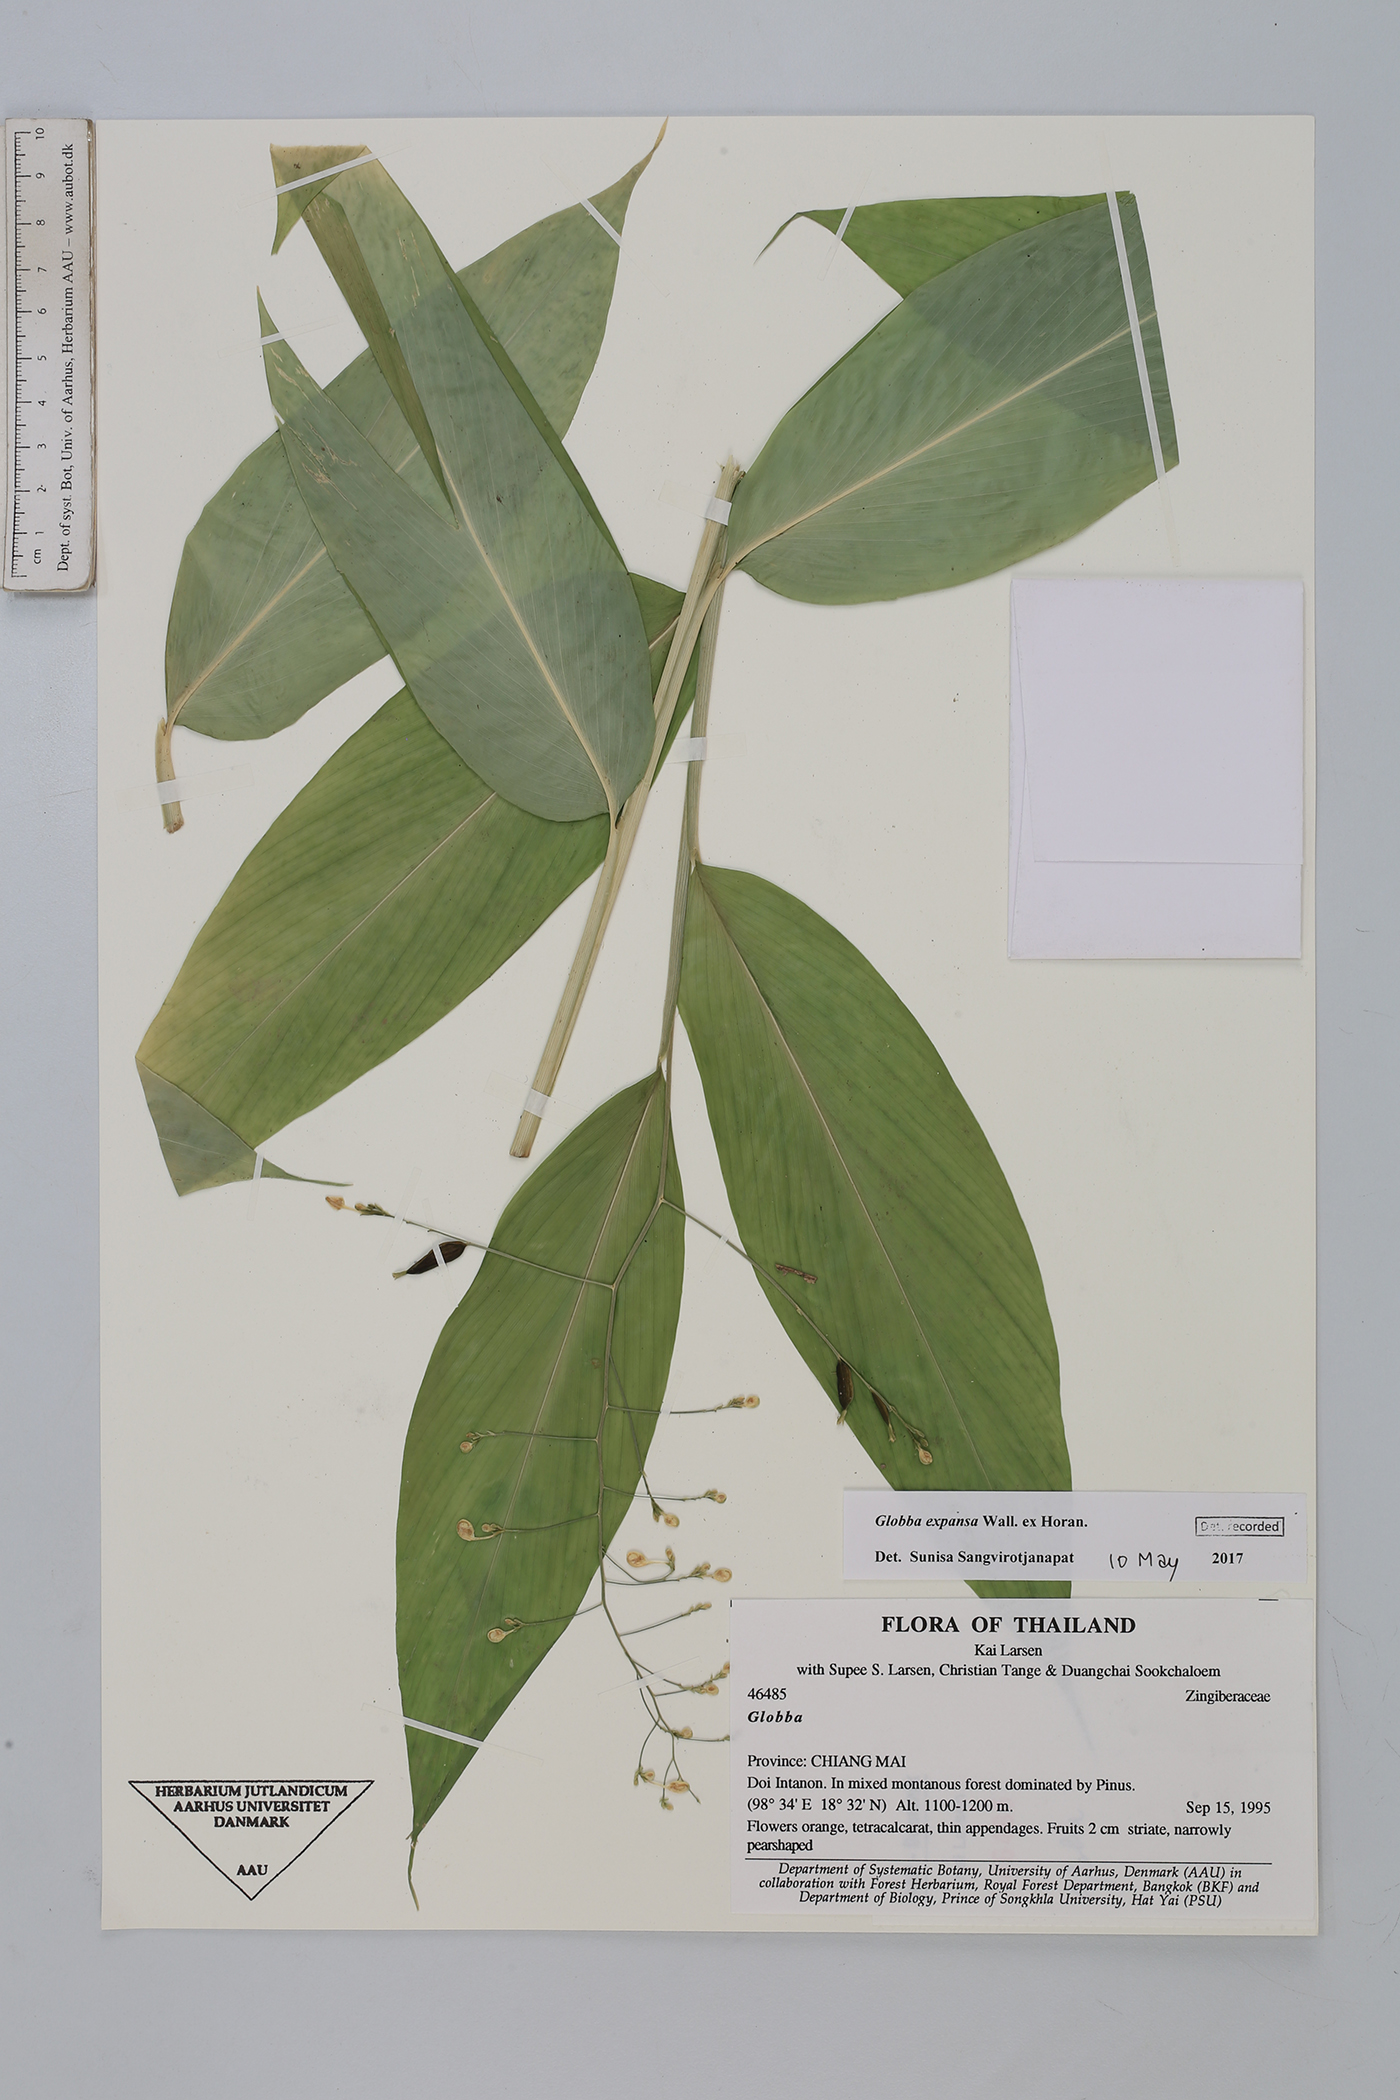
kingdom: Plantae
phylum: Tracheophyta
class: Liliopsida
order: Zingiberales
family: Zingiberaceae
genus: Globba
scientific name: Globba expansa
